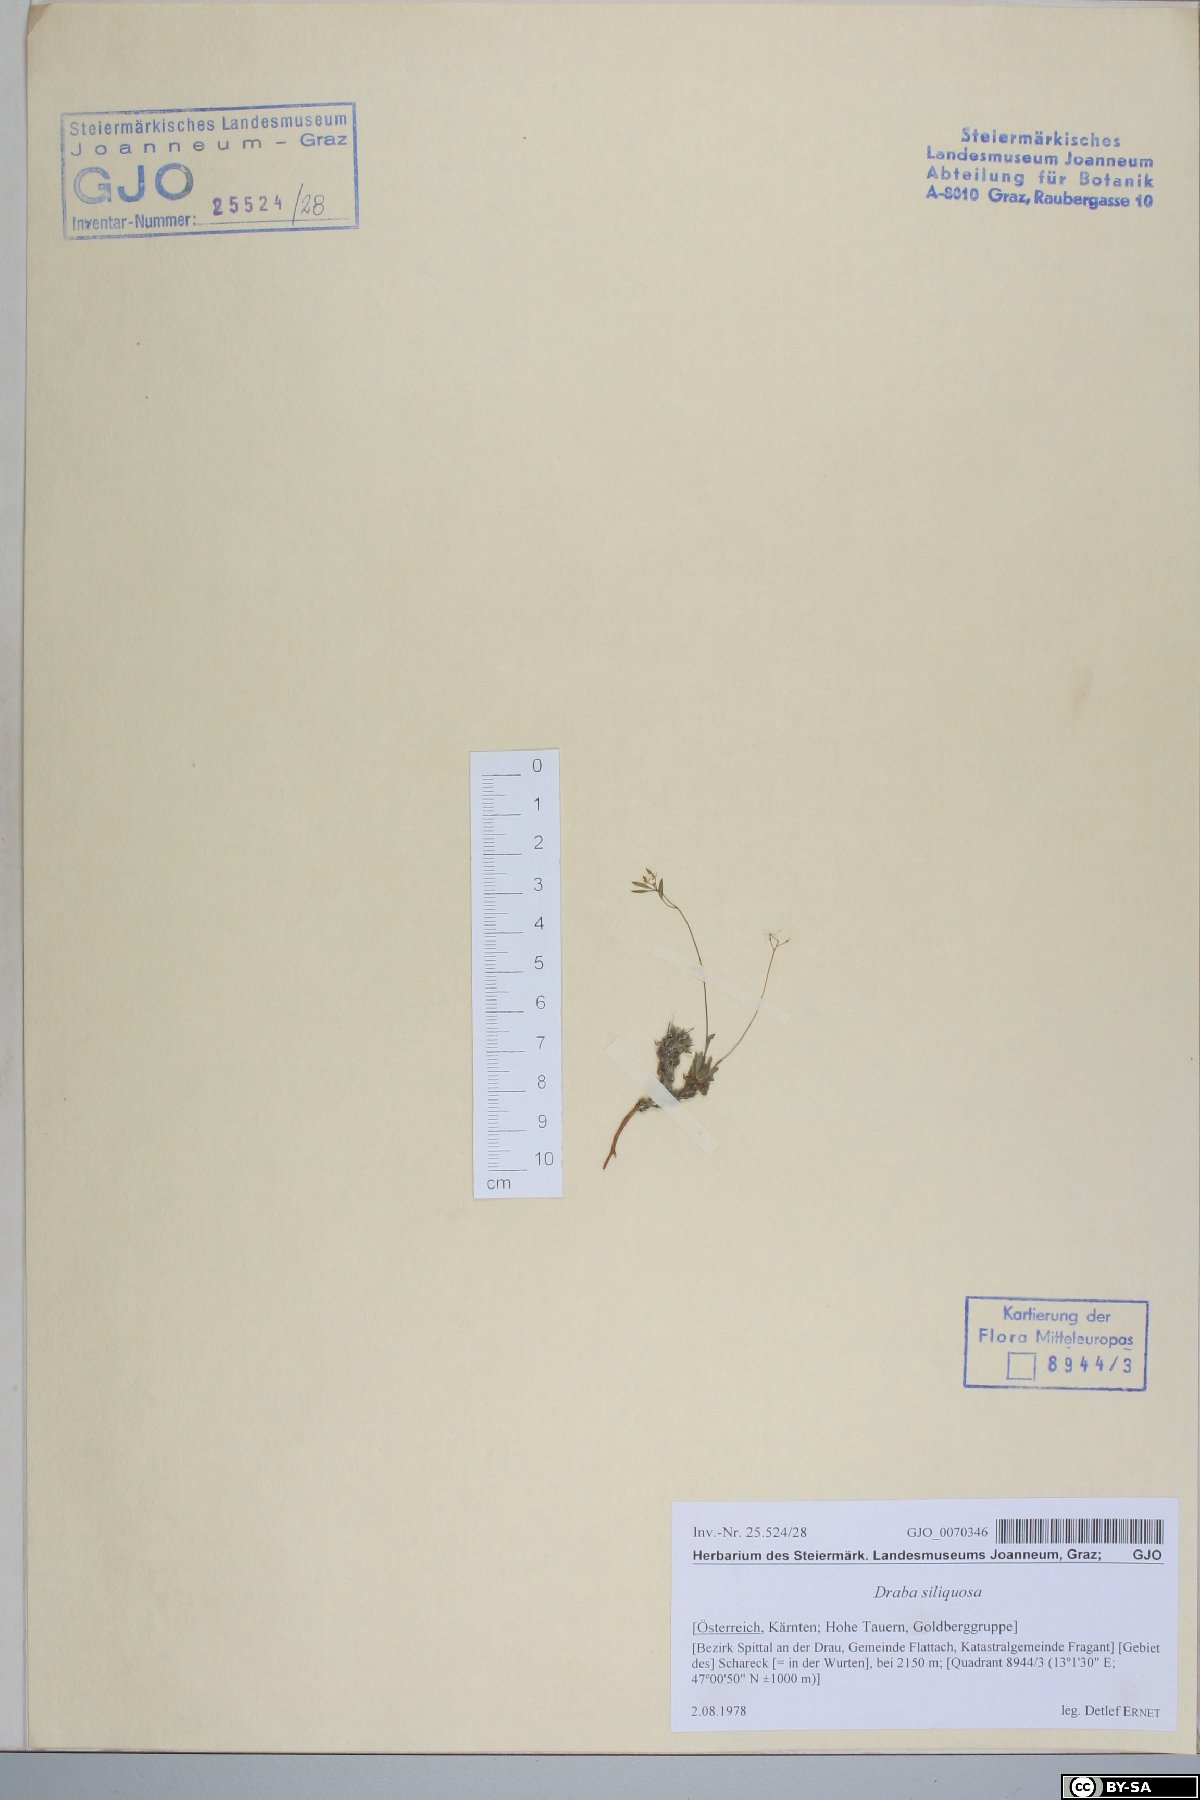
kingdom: Plantae
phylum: Tracheophyta
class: Magnoliopsida
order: Brassicales
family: Brassicaceae
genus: Draba
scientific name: Draba siliquosa
